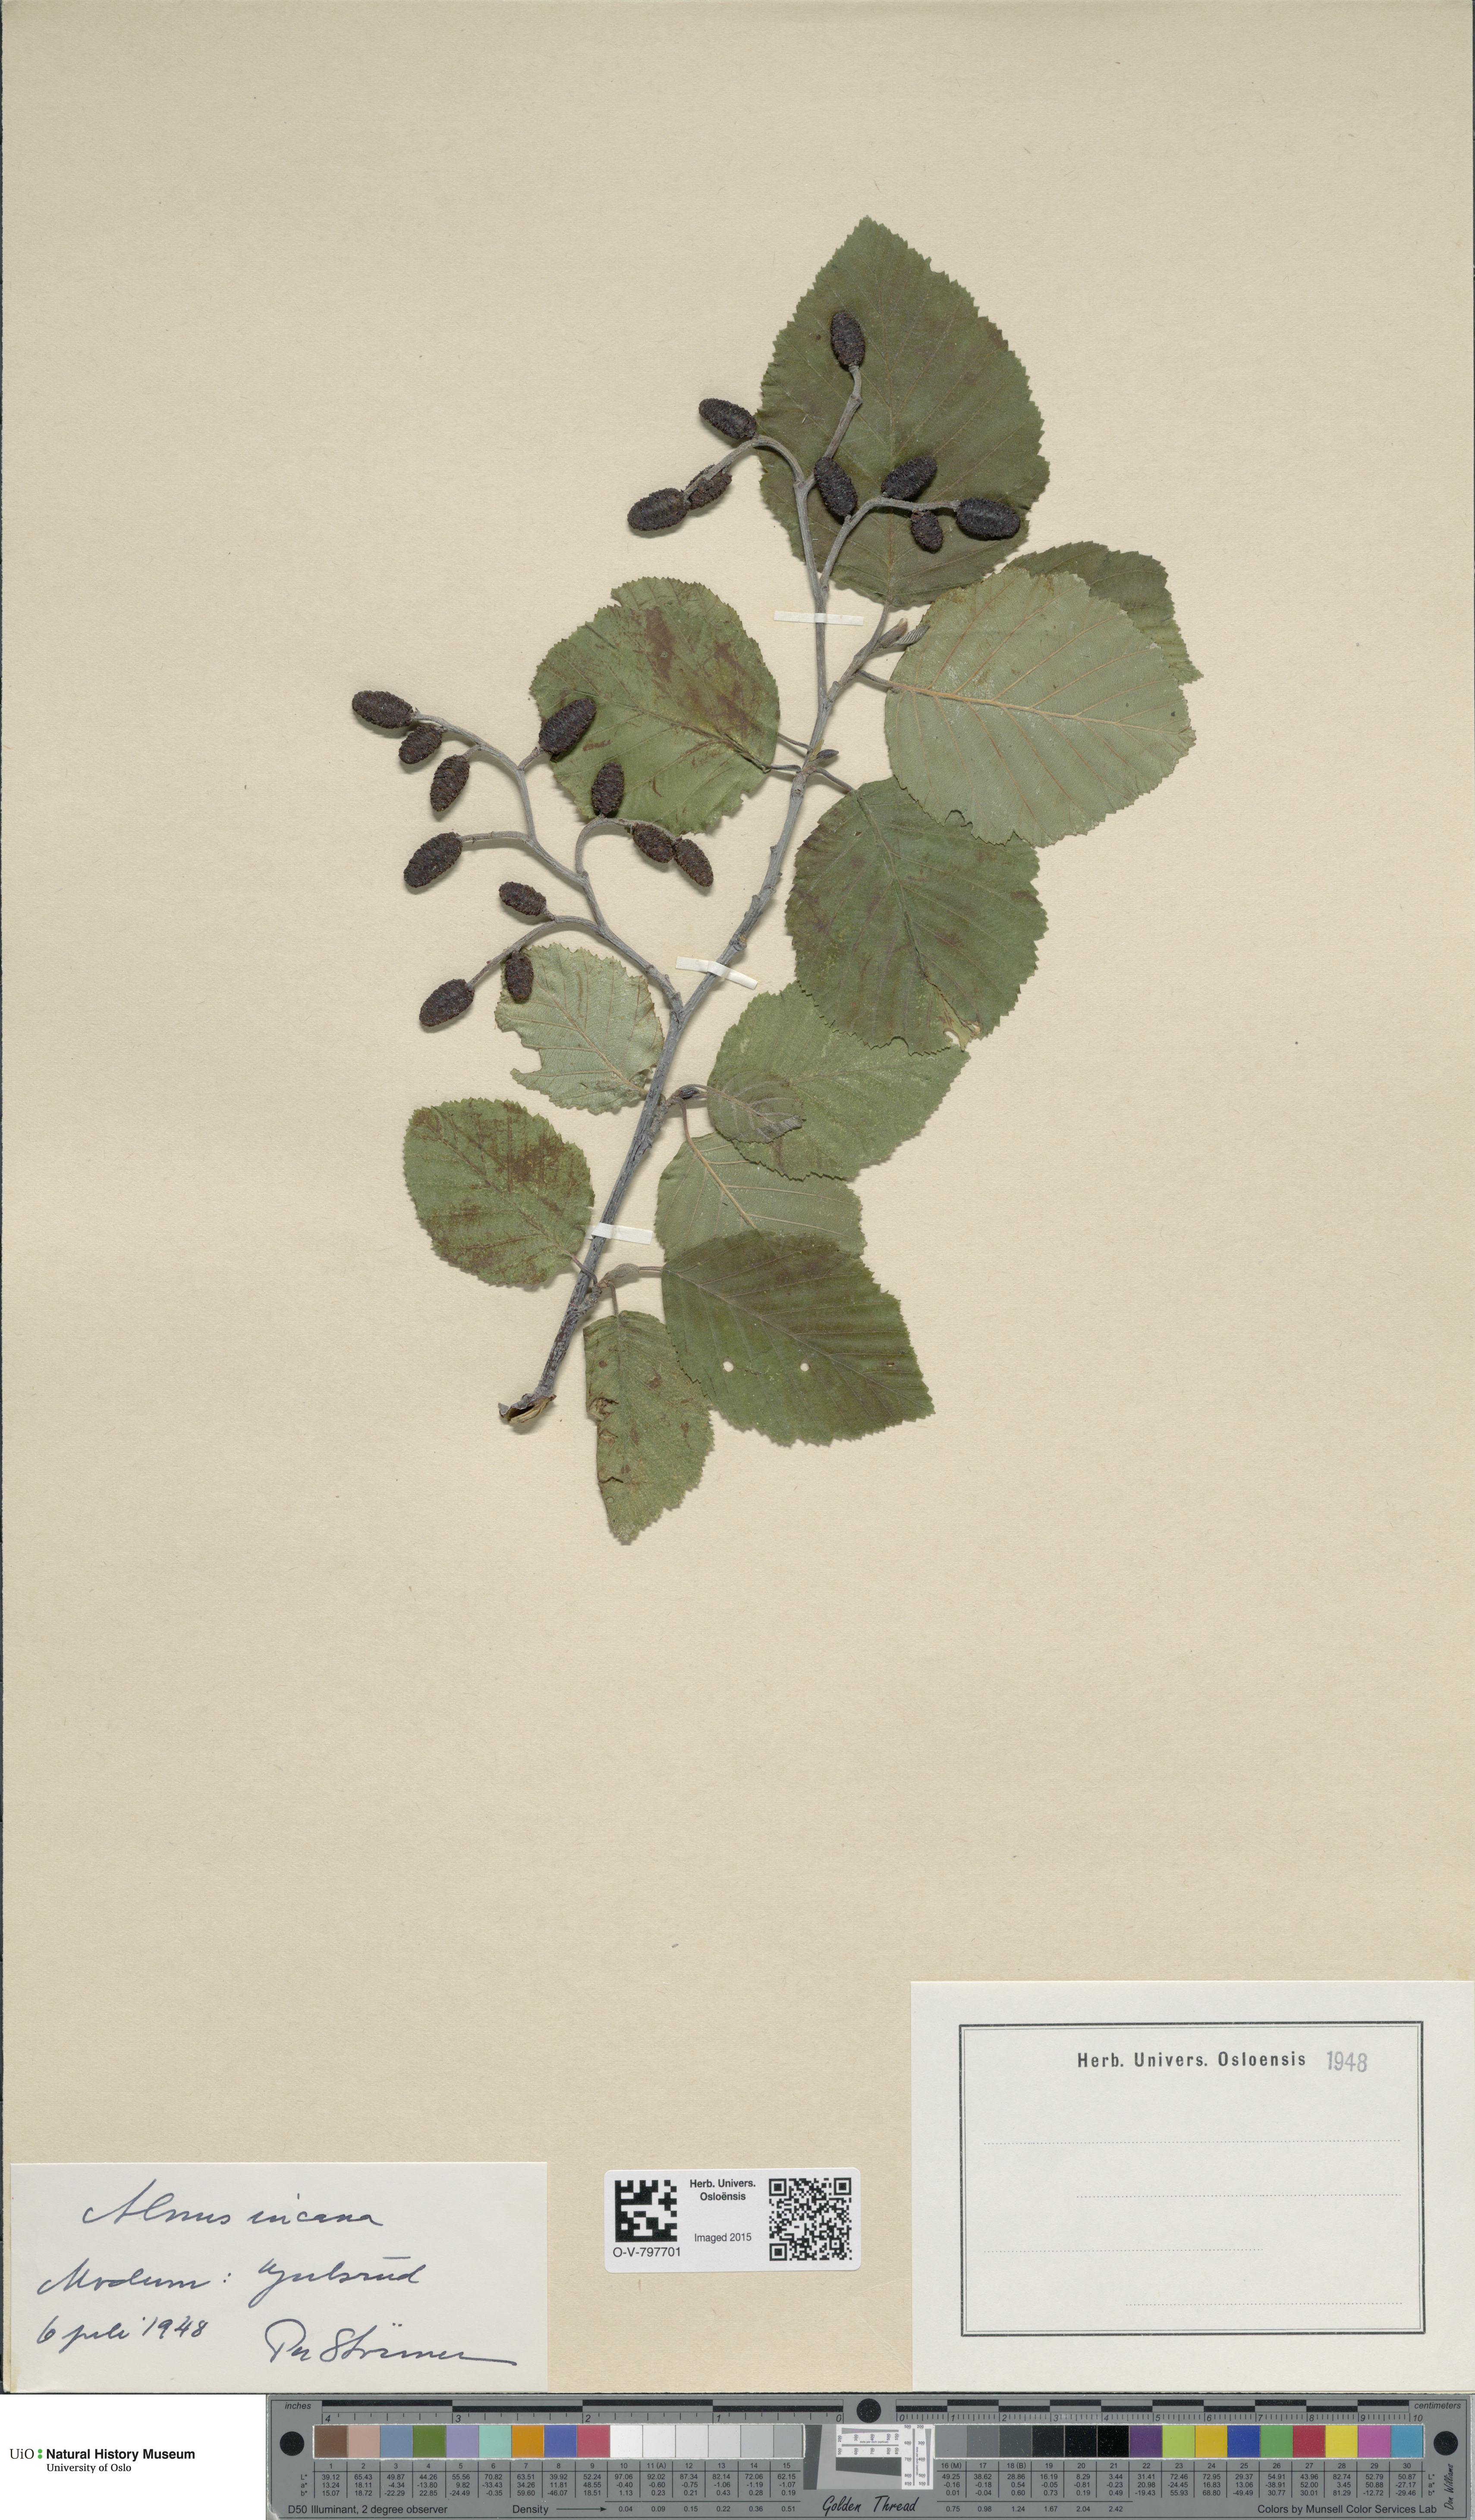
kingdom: Plantae
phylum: Tracheophyta
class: Magnoliopsida
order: Fagales
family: Betulaceae
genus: Alnus
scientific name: Alnus incana
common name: Grey alder
